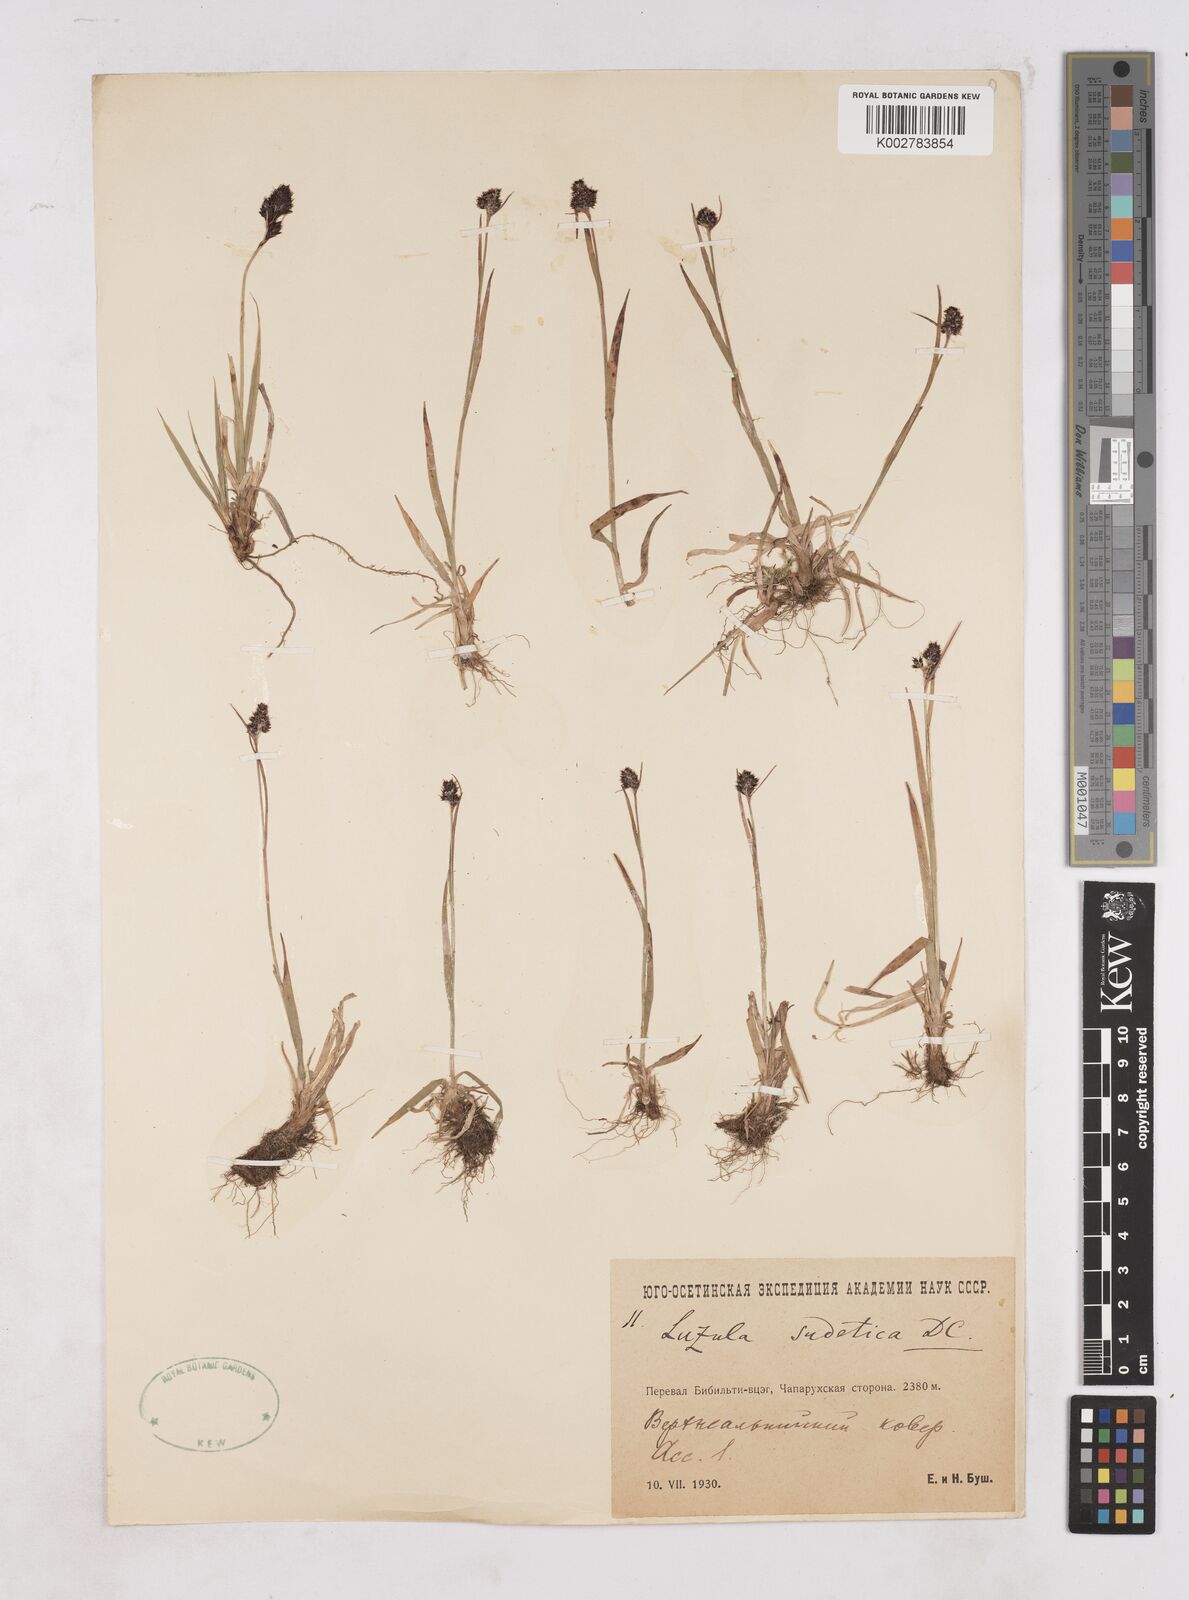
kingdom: Plantae
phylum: Tracheophyta
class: Liliopsida
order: Poales
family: Juncaceae
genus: Luzula
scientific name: Luzula sudetica
